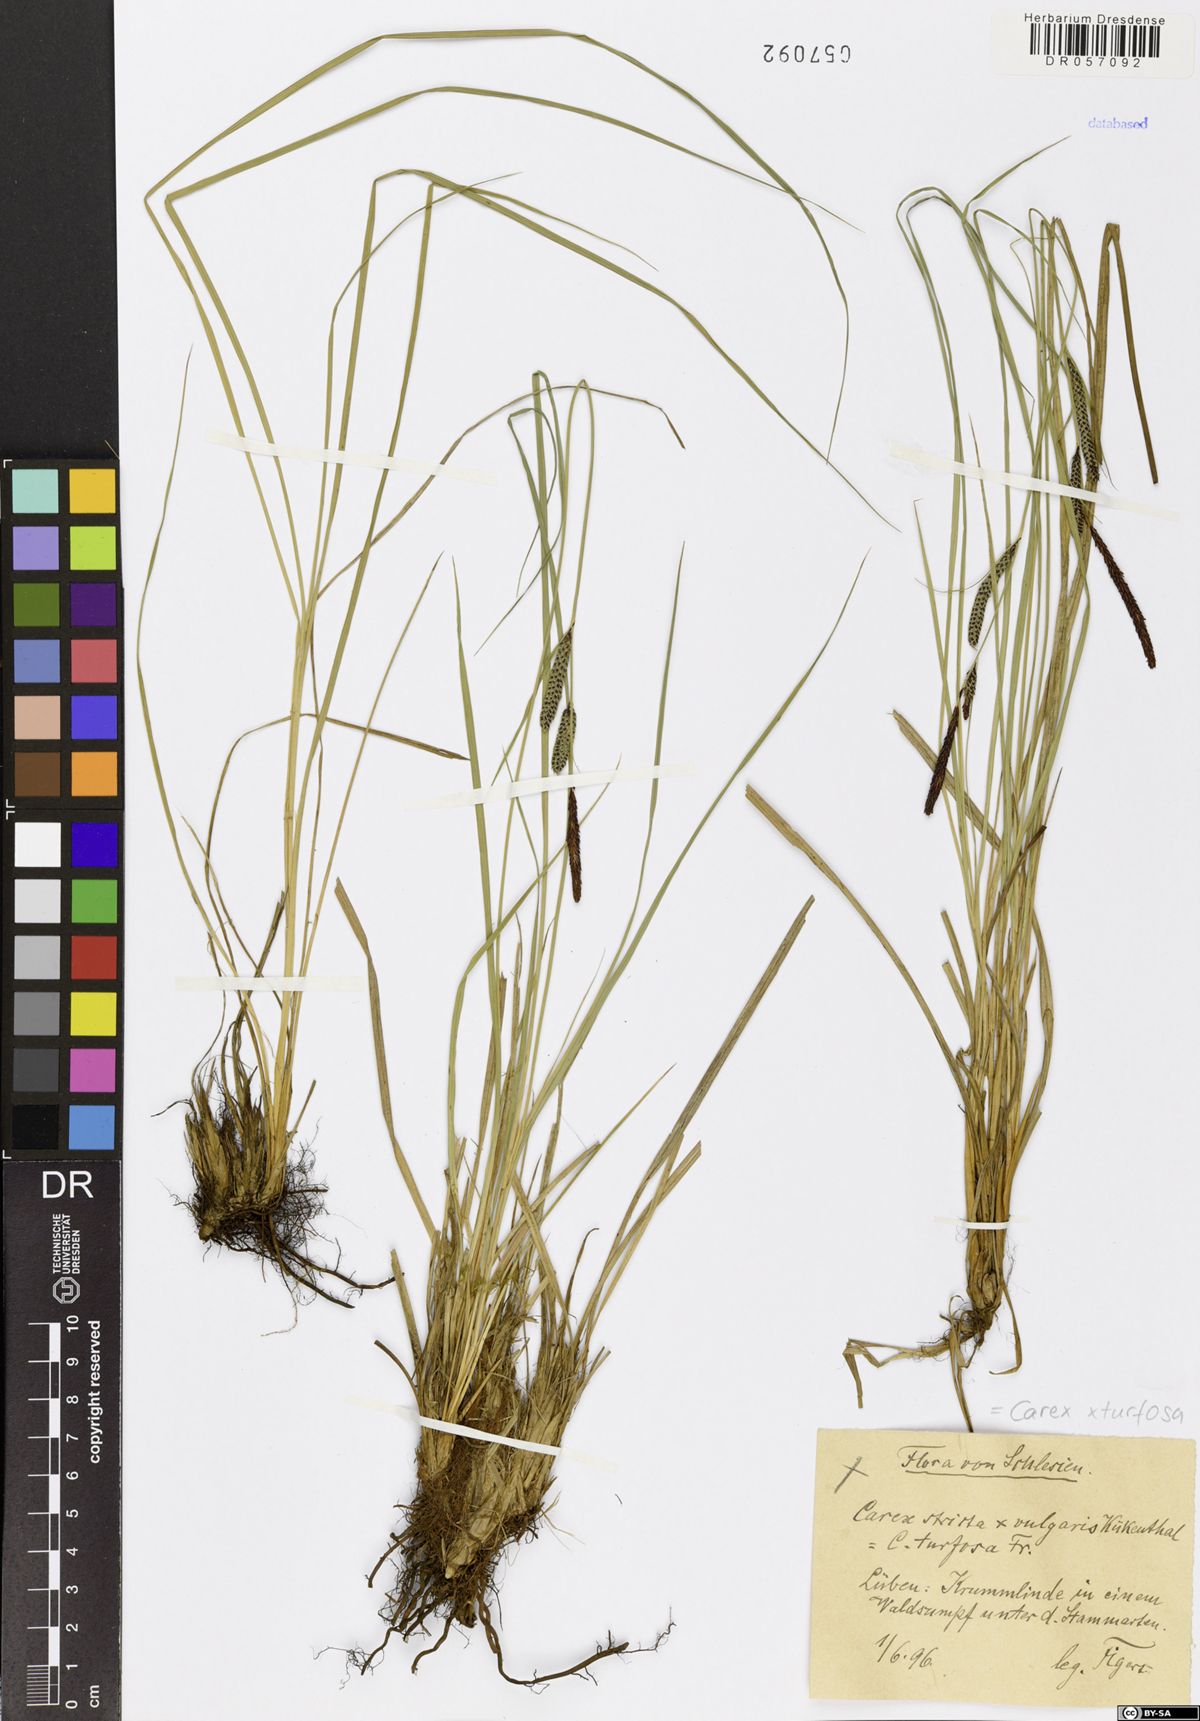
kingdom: Plantae
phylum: Tracheophyta
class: Liliopsida
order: Poales
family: Cyperaceae
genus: Carex
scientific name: Carex turfosa
